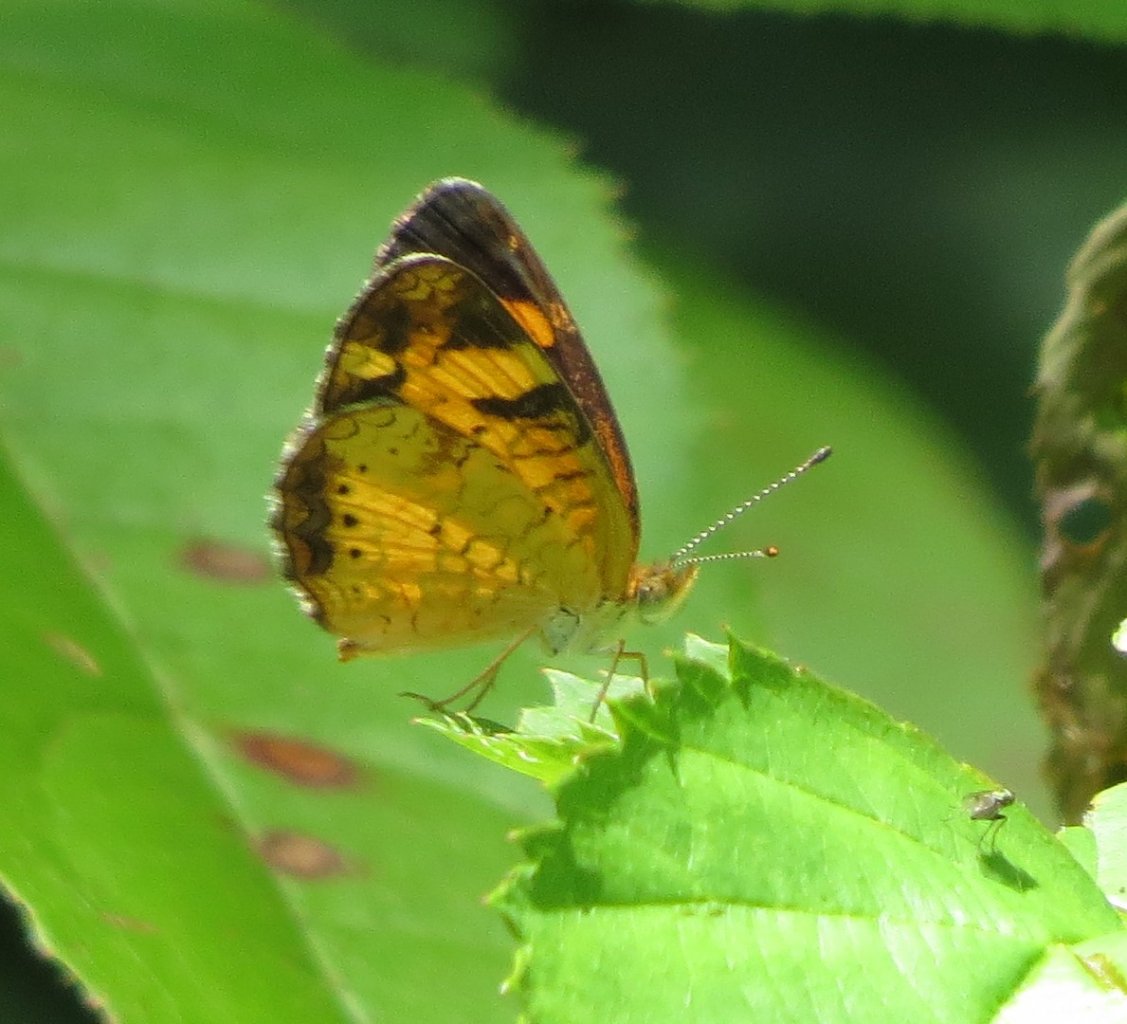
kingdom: Animalia
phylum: Arthropoda
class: Insecta
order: Lepidoptera
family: Nymphalidae
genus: Phyciodes
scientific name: Phyciodes tharos
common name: Pearl Crescent
